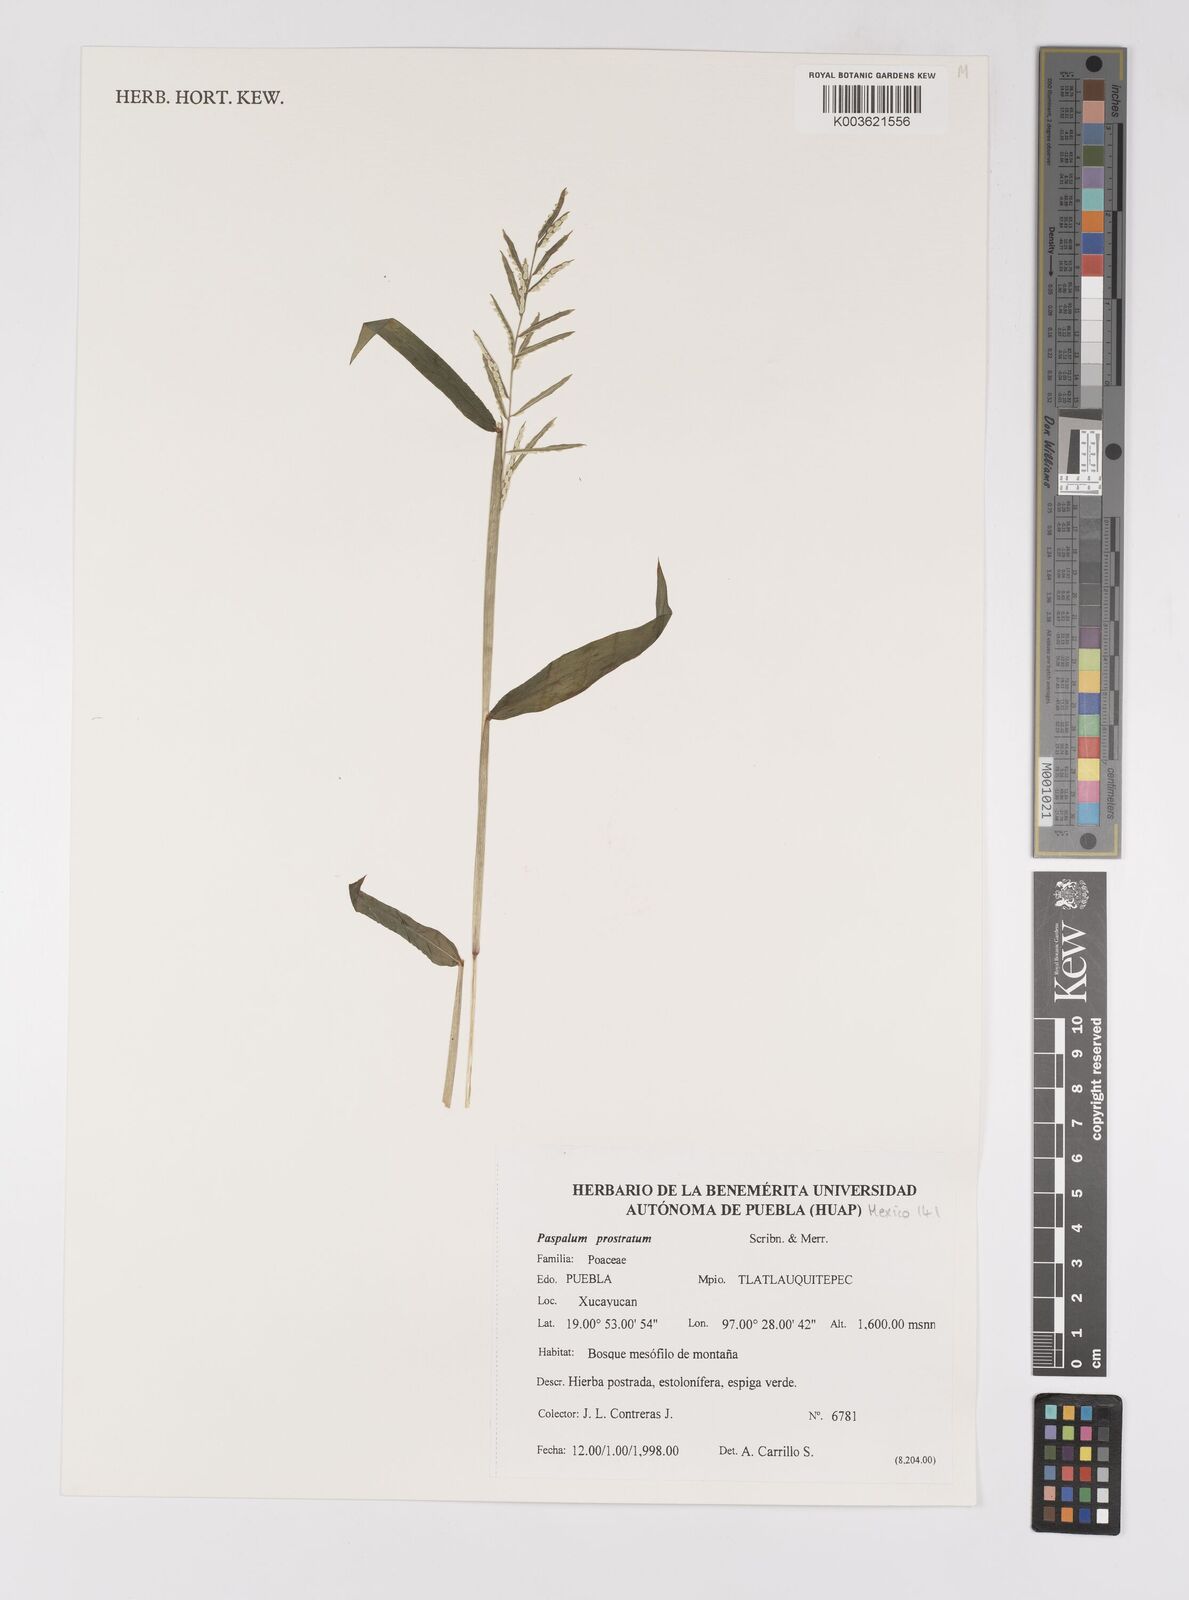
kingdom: Plantae
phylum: Tracheophyta
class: Liliopsida
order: Poales
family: Poaceae
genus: Paspalum
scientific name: Paspalum prostratum
